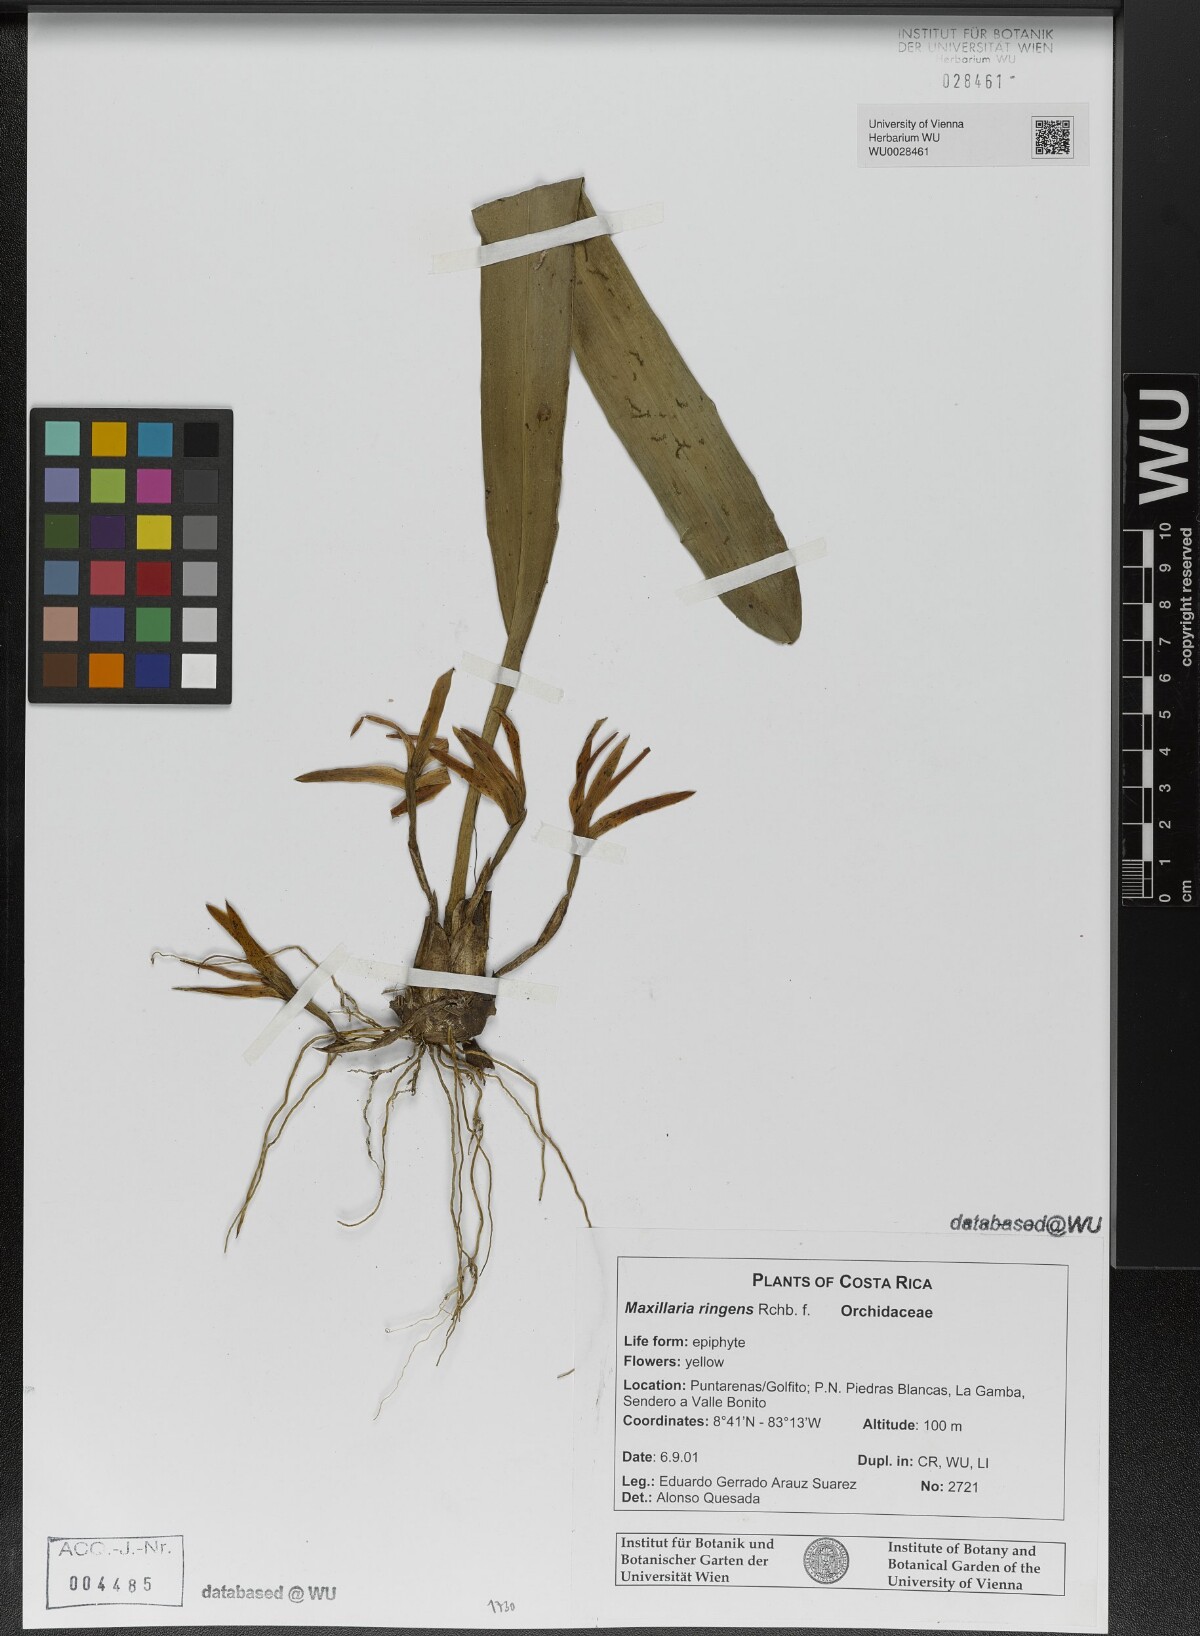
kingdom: Plantae
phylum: Tracheophyta
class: Liliopsida
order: Asparagales
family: Orchidaceae
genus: Maxillaria
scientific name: Maxillaria ringens
